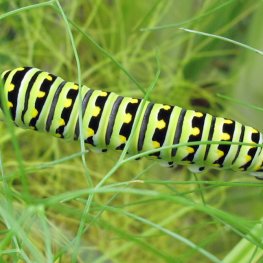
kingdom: Animalia
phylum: Arthropoda
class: Insecta
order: Lepidoptera
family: Papilionidae
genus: Papilio
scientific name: Papilio polyxenes
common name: Black Swallowtail
